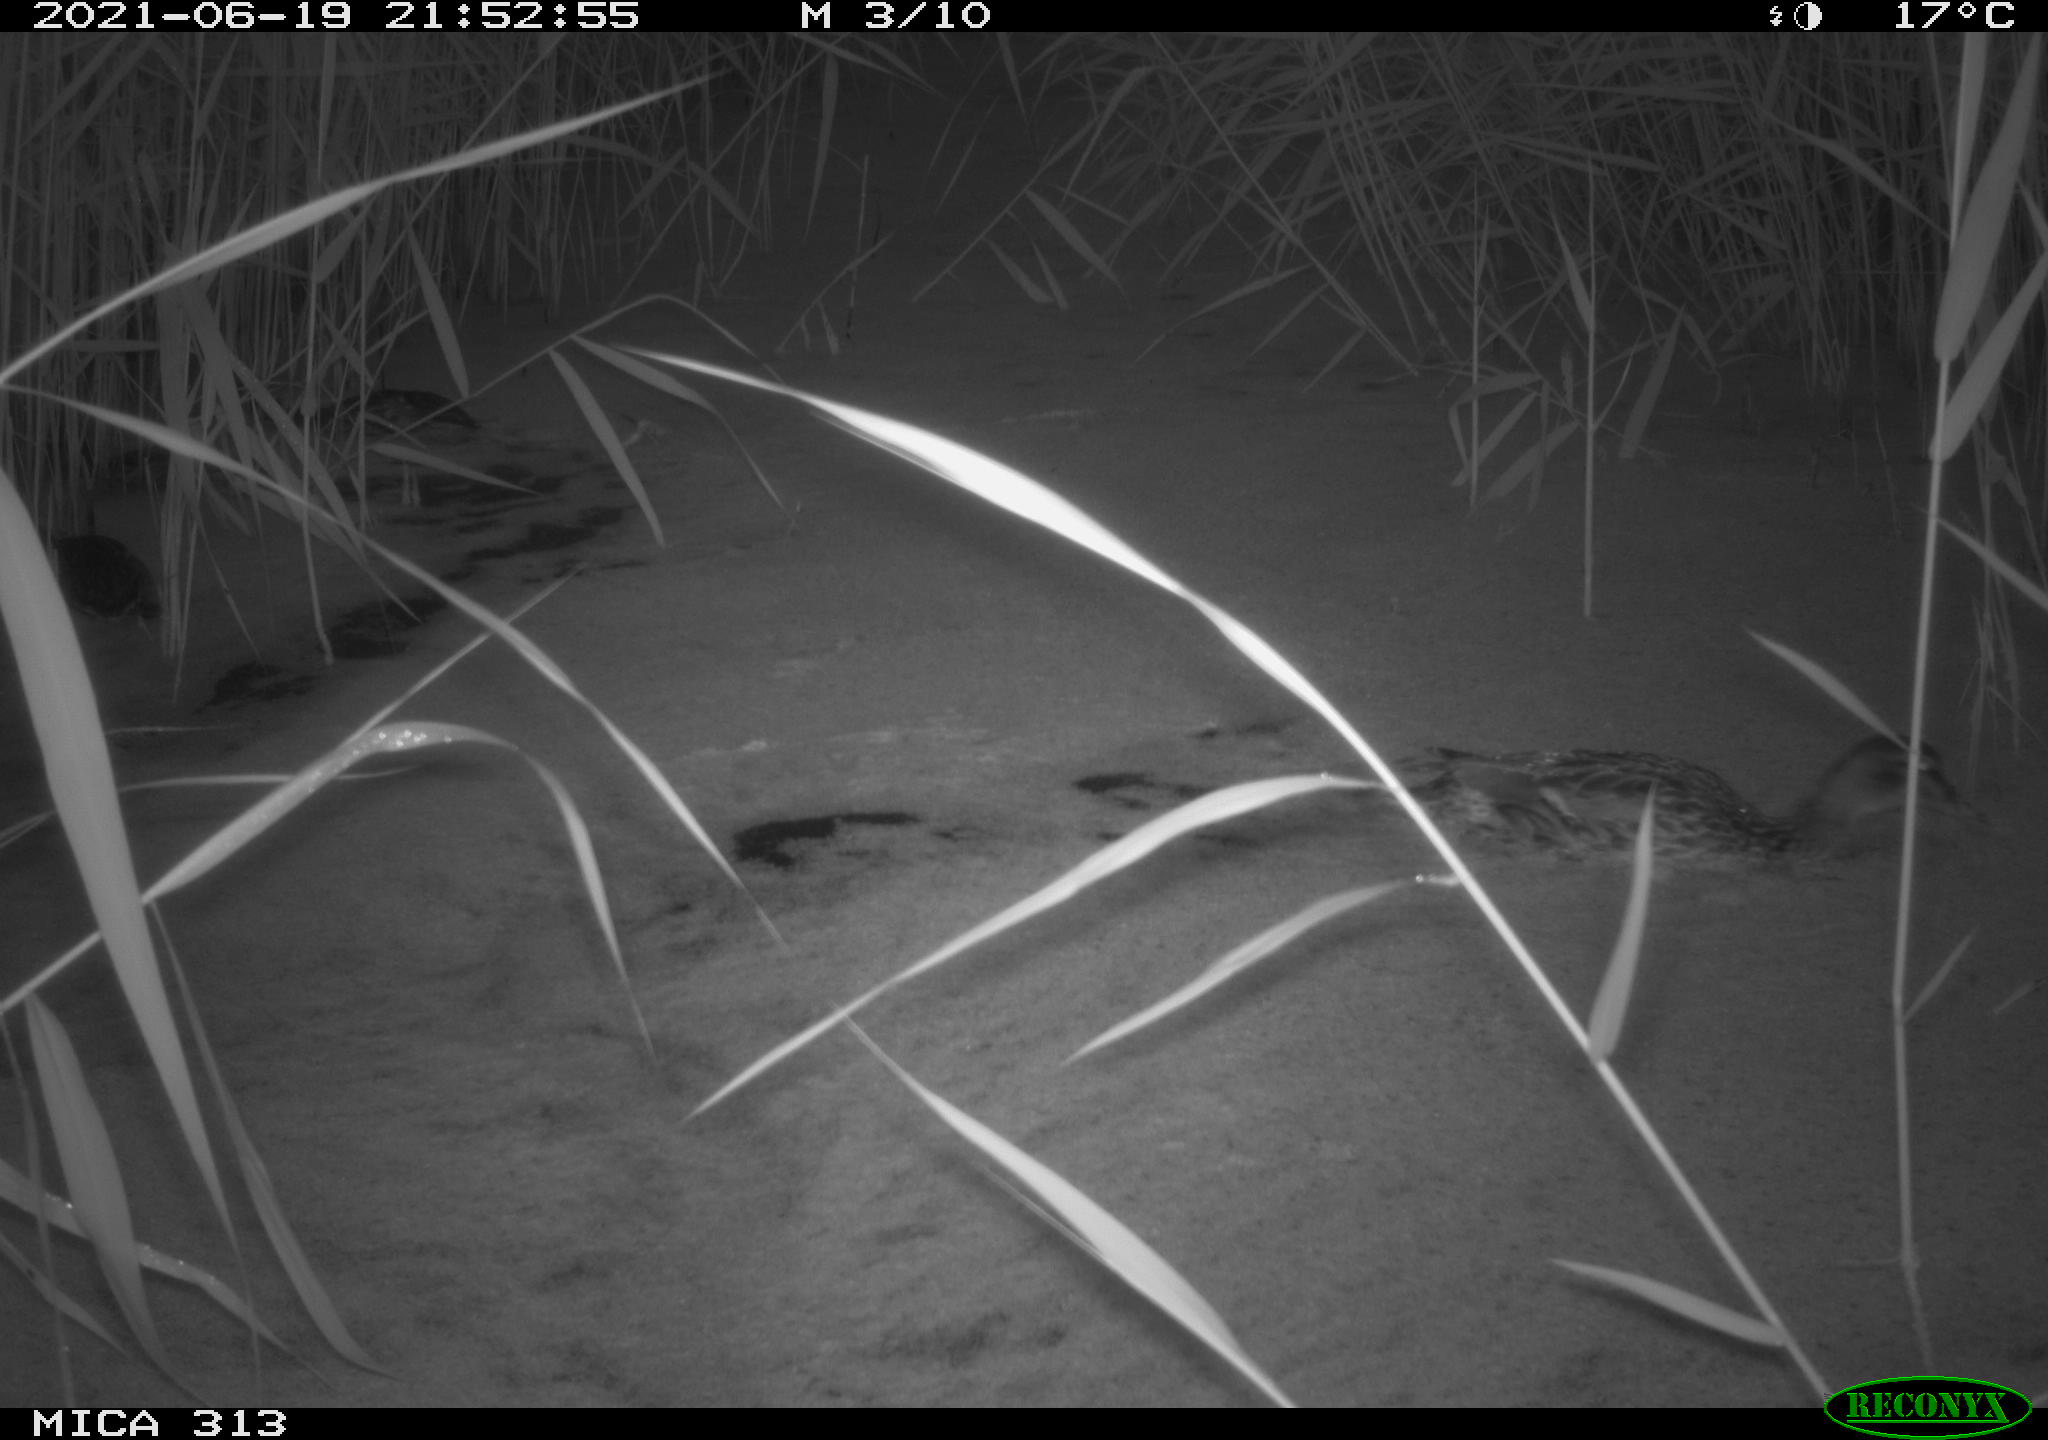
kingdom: Animalia
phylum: Chordata
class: Aves
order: Anseriformes
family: Anatidae
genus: Anas
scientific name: Anas platyrhynchos
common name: Mallard
